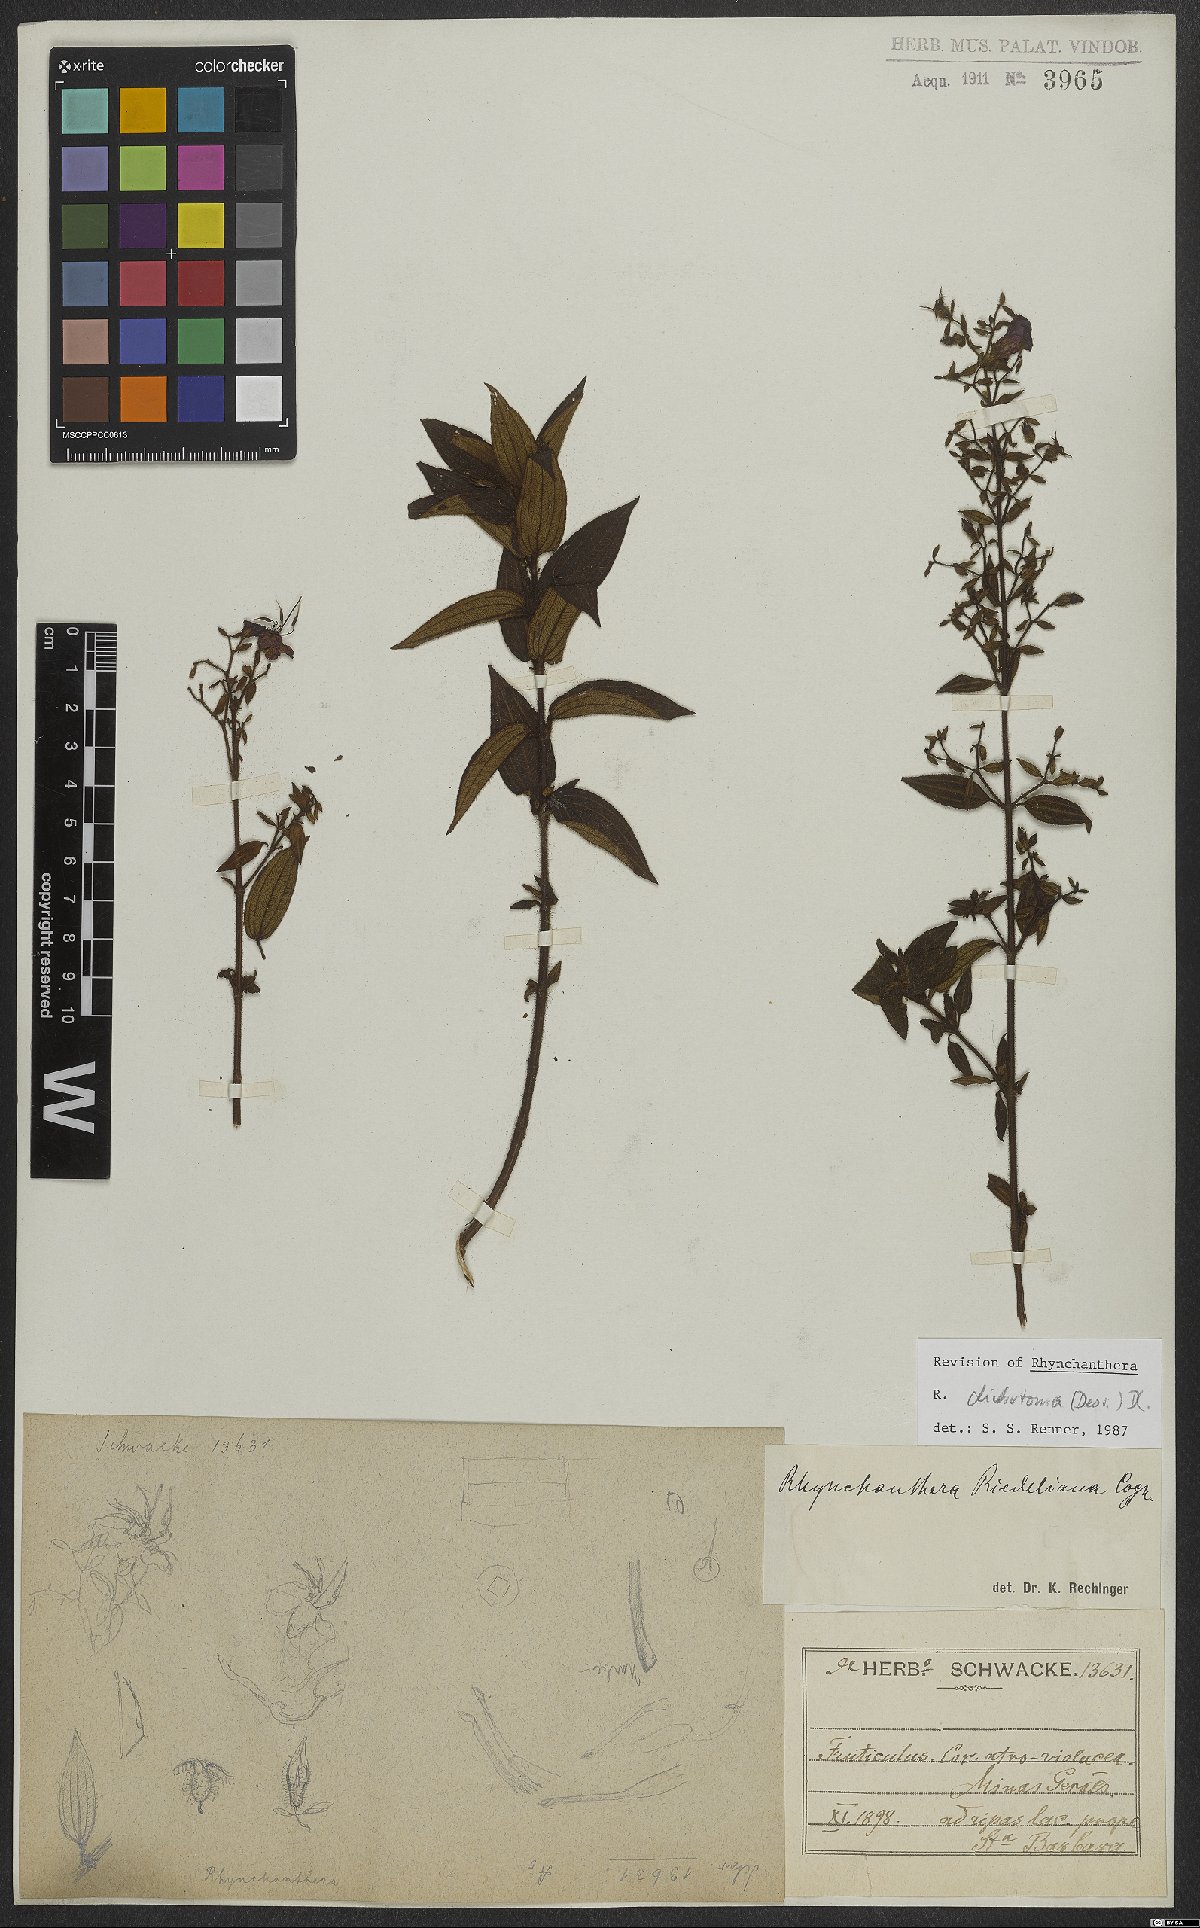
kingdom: Plantae
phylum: Tracheophyta
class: Magnoliopsida
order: Myrtales
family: Melastomataceae
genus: Rhynchanthera
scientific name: Rhynchanthera dichotoma
